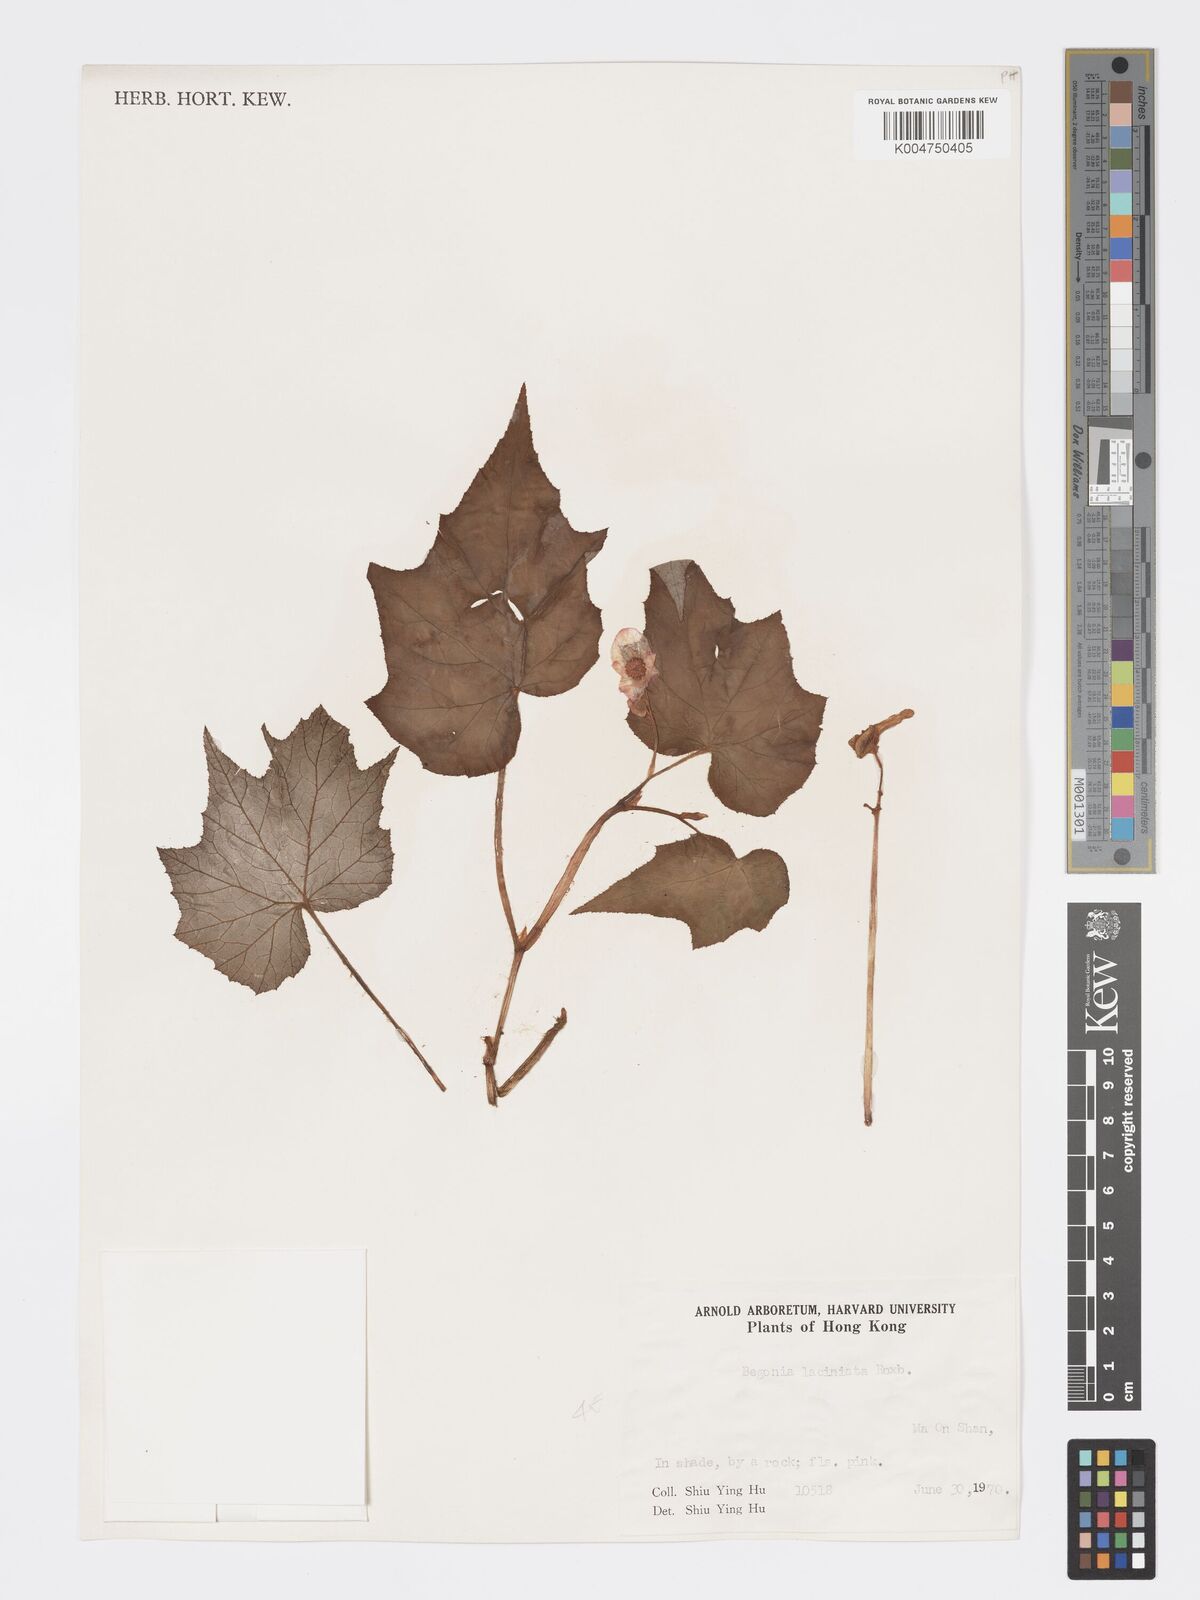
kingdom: Plantae
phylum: Tracheophyta
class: Magnoliopsida
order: Cucurbitales
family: Begoniaceae
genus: Begonia
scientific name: Begonia
